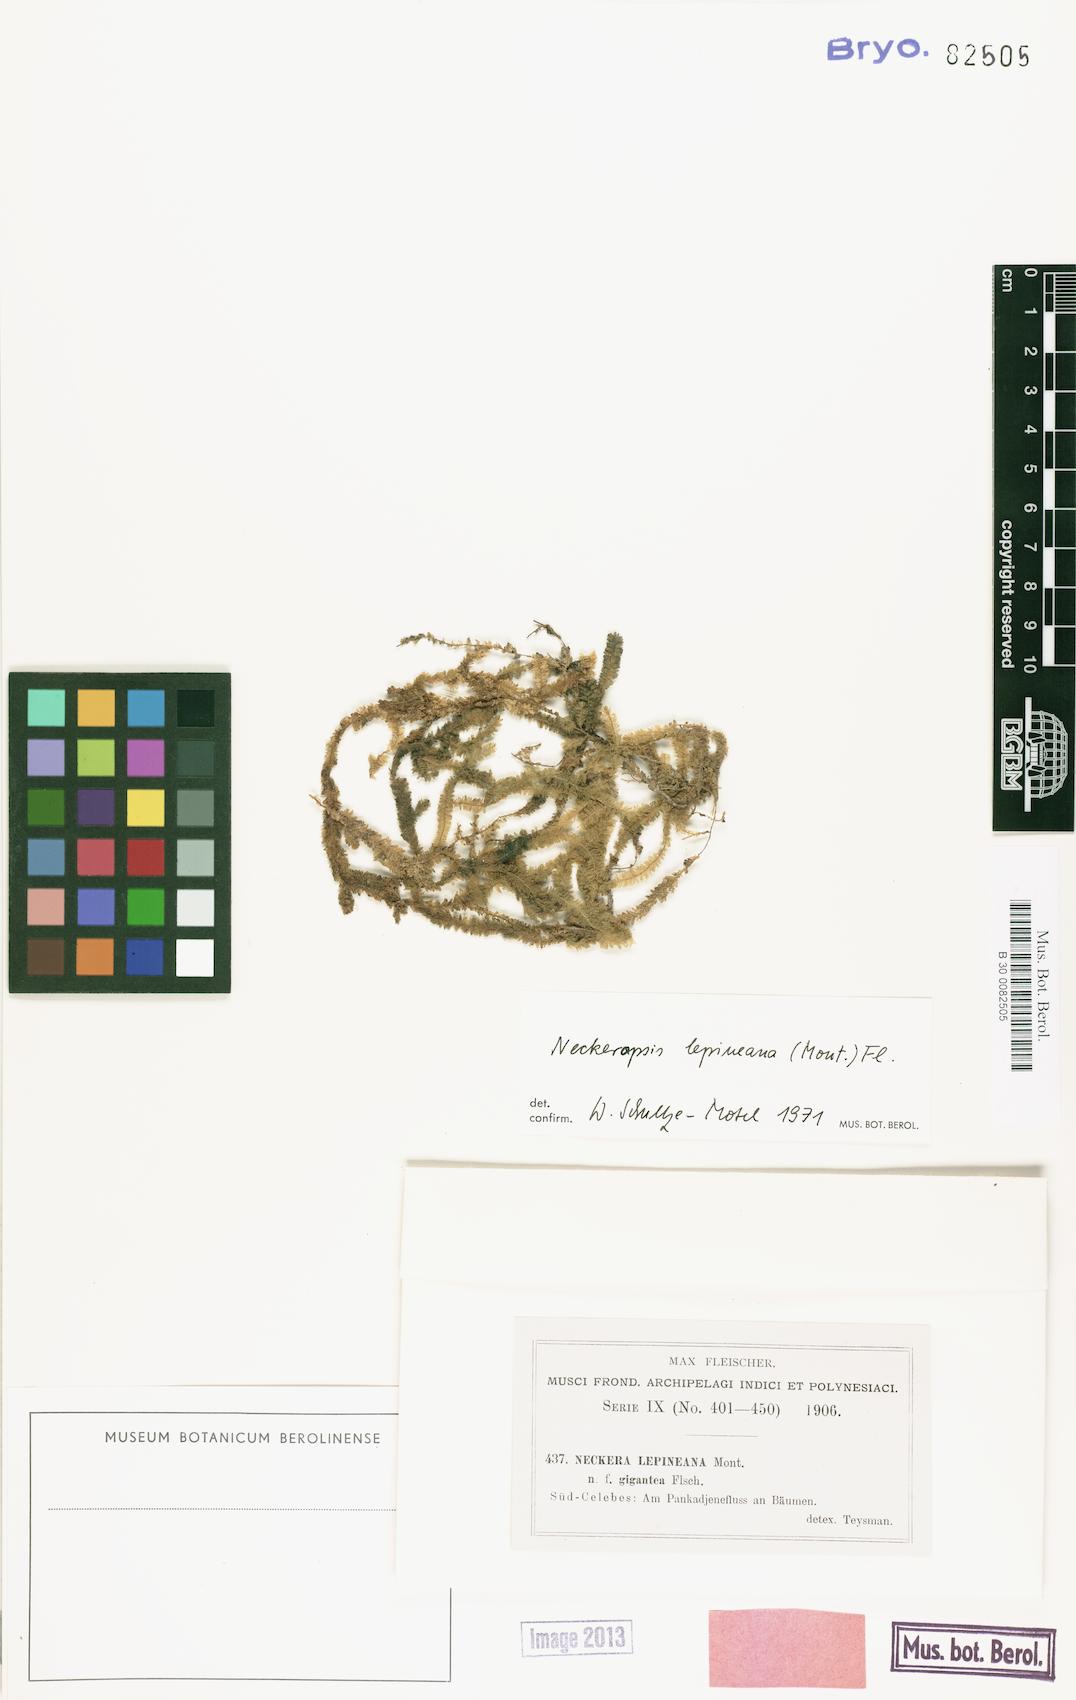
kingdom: Plantae
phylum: Bryophyta
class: Bryopsida
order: Hypnales
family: Neckeraceae
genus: Neckeromnion
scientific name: Neckeromnion lepineanum
